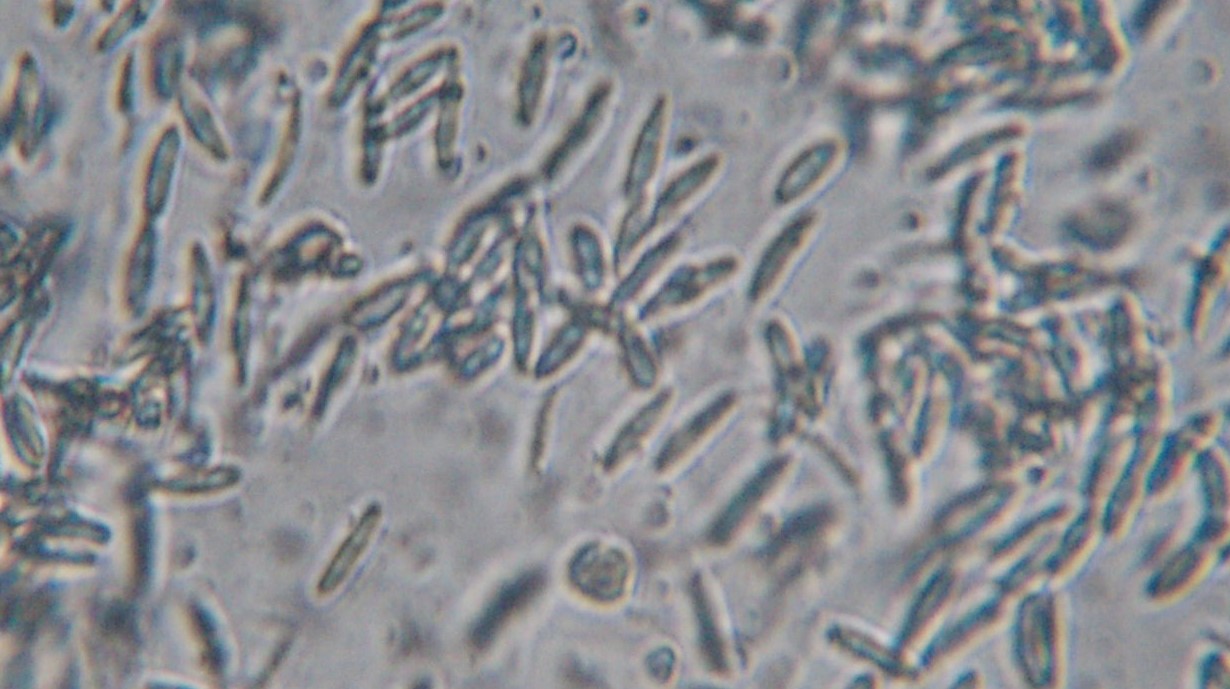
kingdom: Fungi
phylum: Ascomycota
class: Sordariomycetes
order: Diaporthales
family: Gnomoniaceae
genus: Sirococcus
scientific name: Sirococcus conigenus
